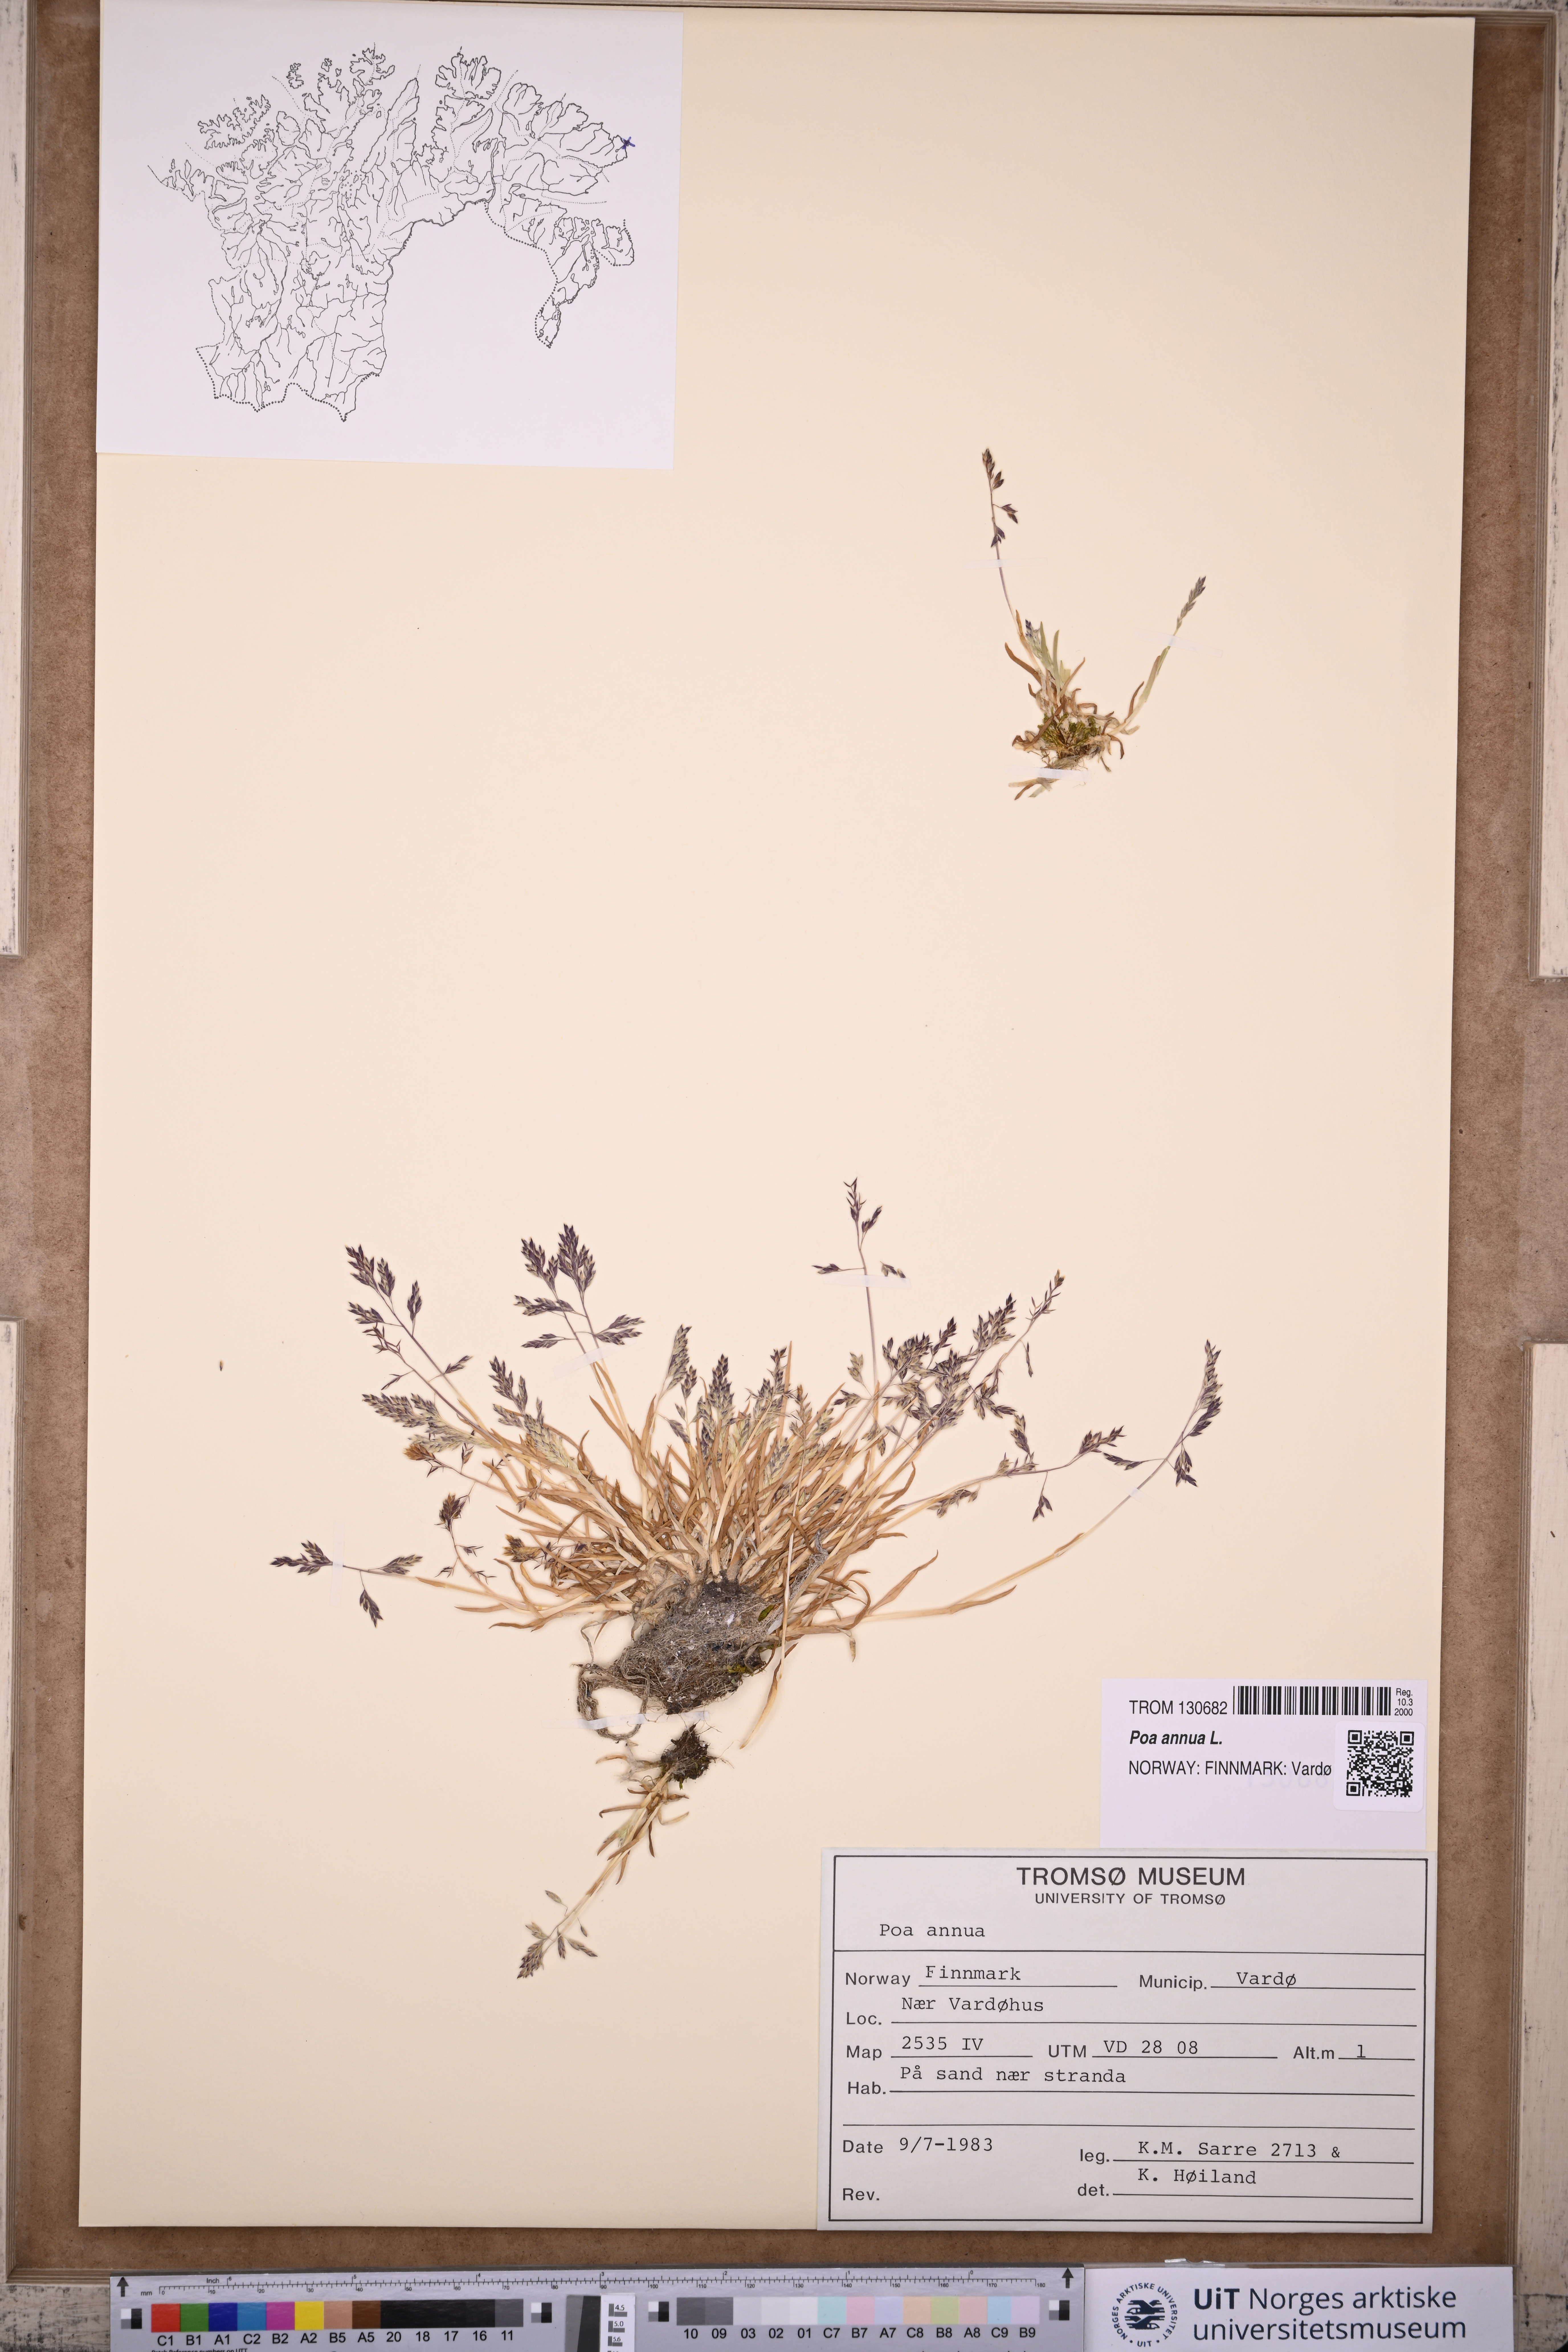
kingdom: Plantae
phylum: Tracheophyta
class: Liliopsida
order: Poales
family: Poaceae
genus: Poa
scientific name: Poa annua
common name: Annual bluegrass
